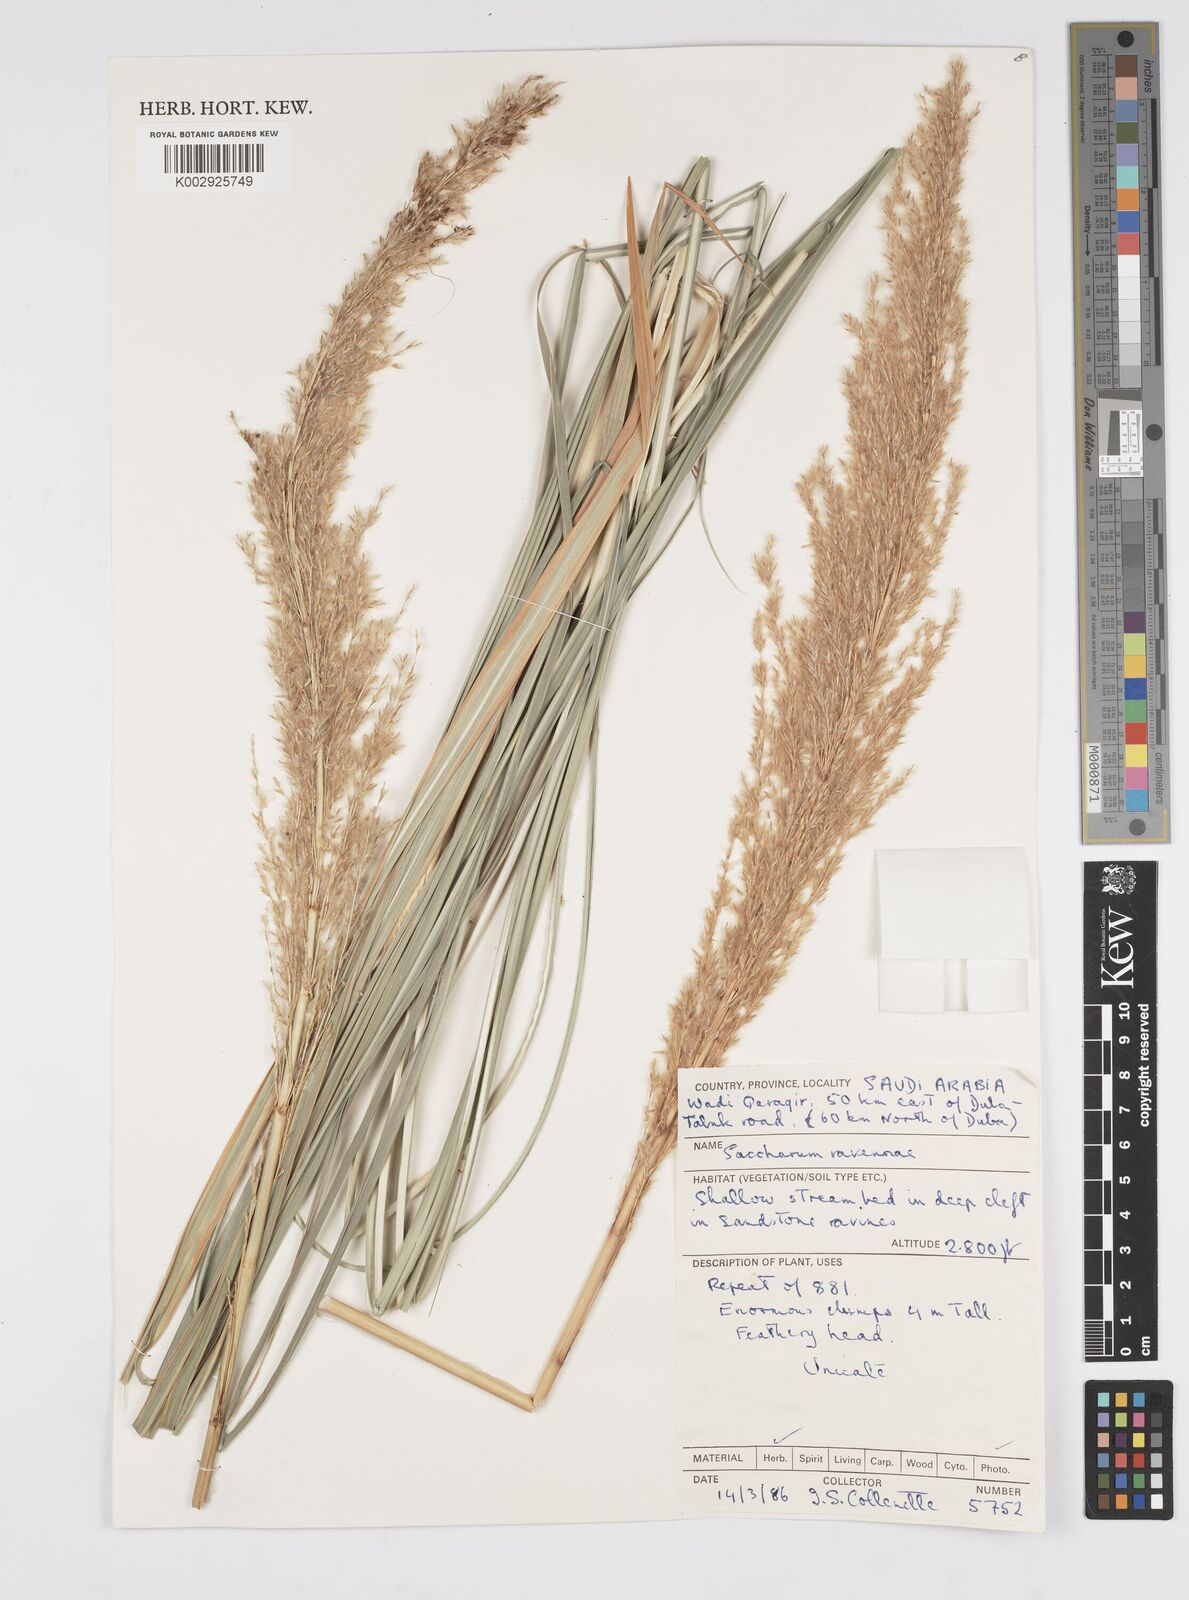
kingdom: Plantae
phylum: Tracheophyta
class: Liliopsida
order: Poales
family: Poaceae
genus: Tripidium
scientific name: Tripidium ravennae
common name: Ravenna grass
